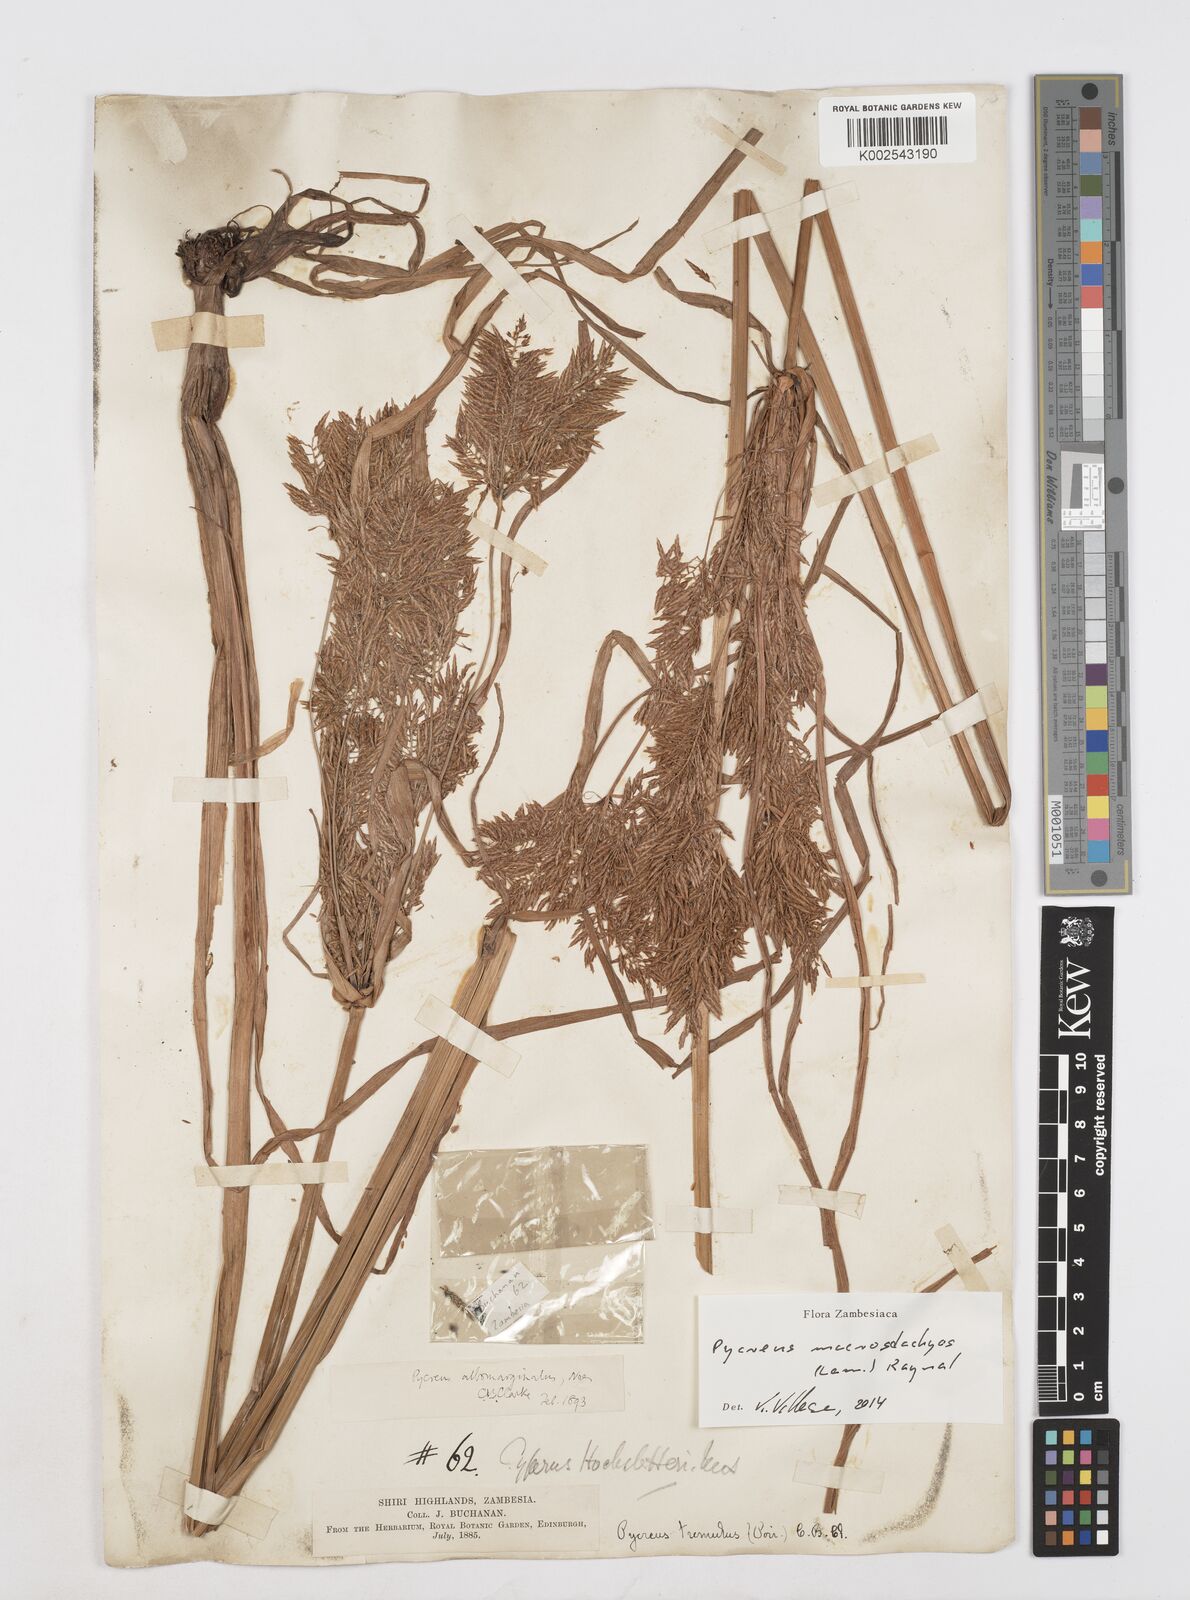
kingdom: Plantae
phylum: Tracheophyta
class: Liliopsida
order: Poales
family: Cyperaceae
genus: Cyperus
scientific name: Cyperus macrostachyos
